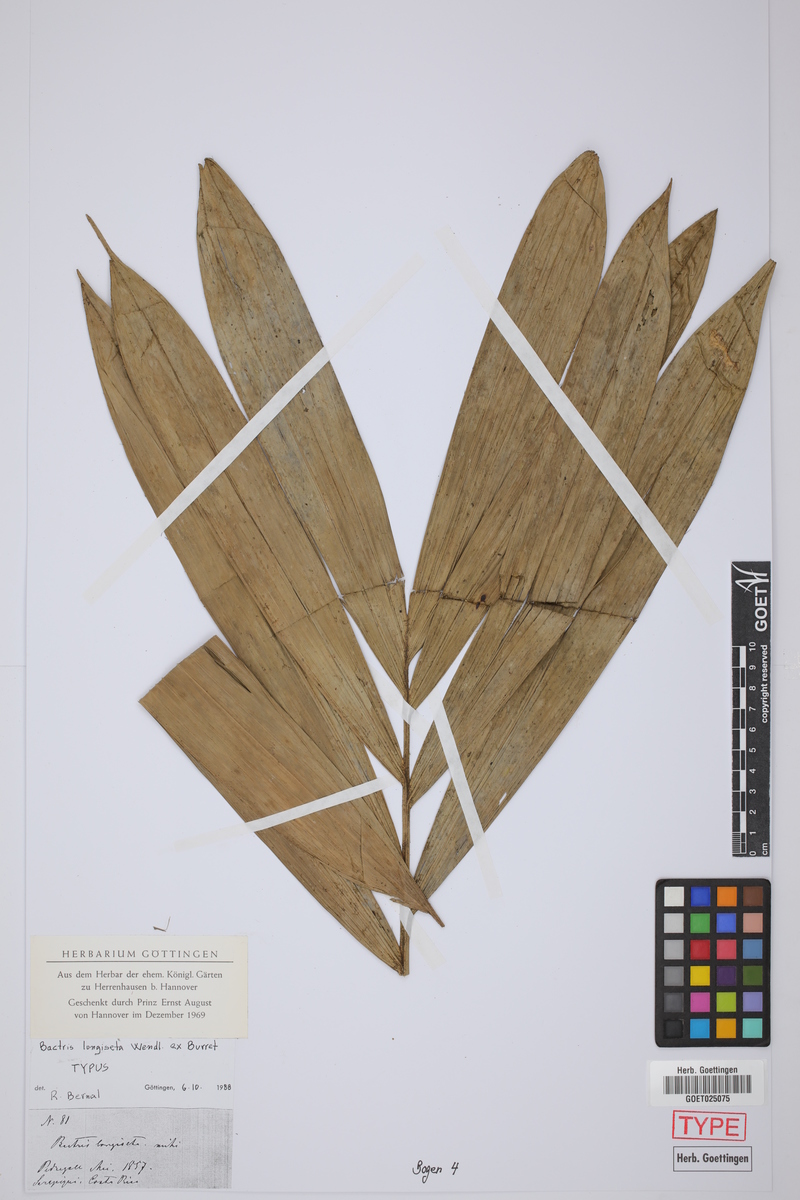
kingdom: Plantae
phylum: Tracheophyta
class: Liliopsida
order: Arecales
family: Arecaceae
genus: Bactris
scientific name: Bactris longiseta
